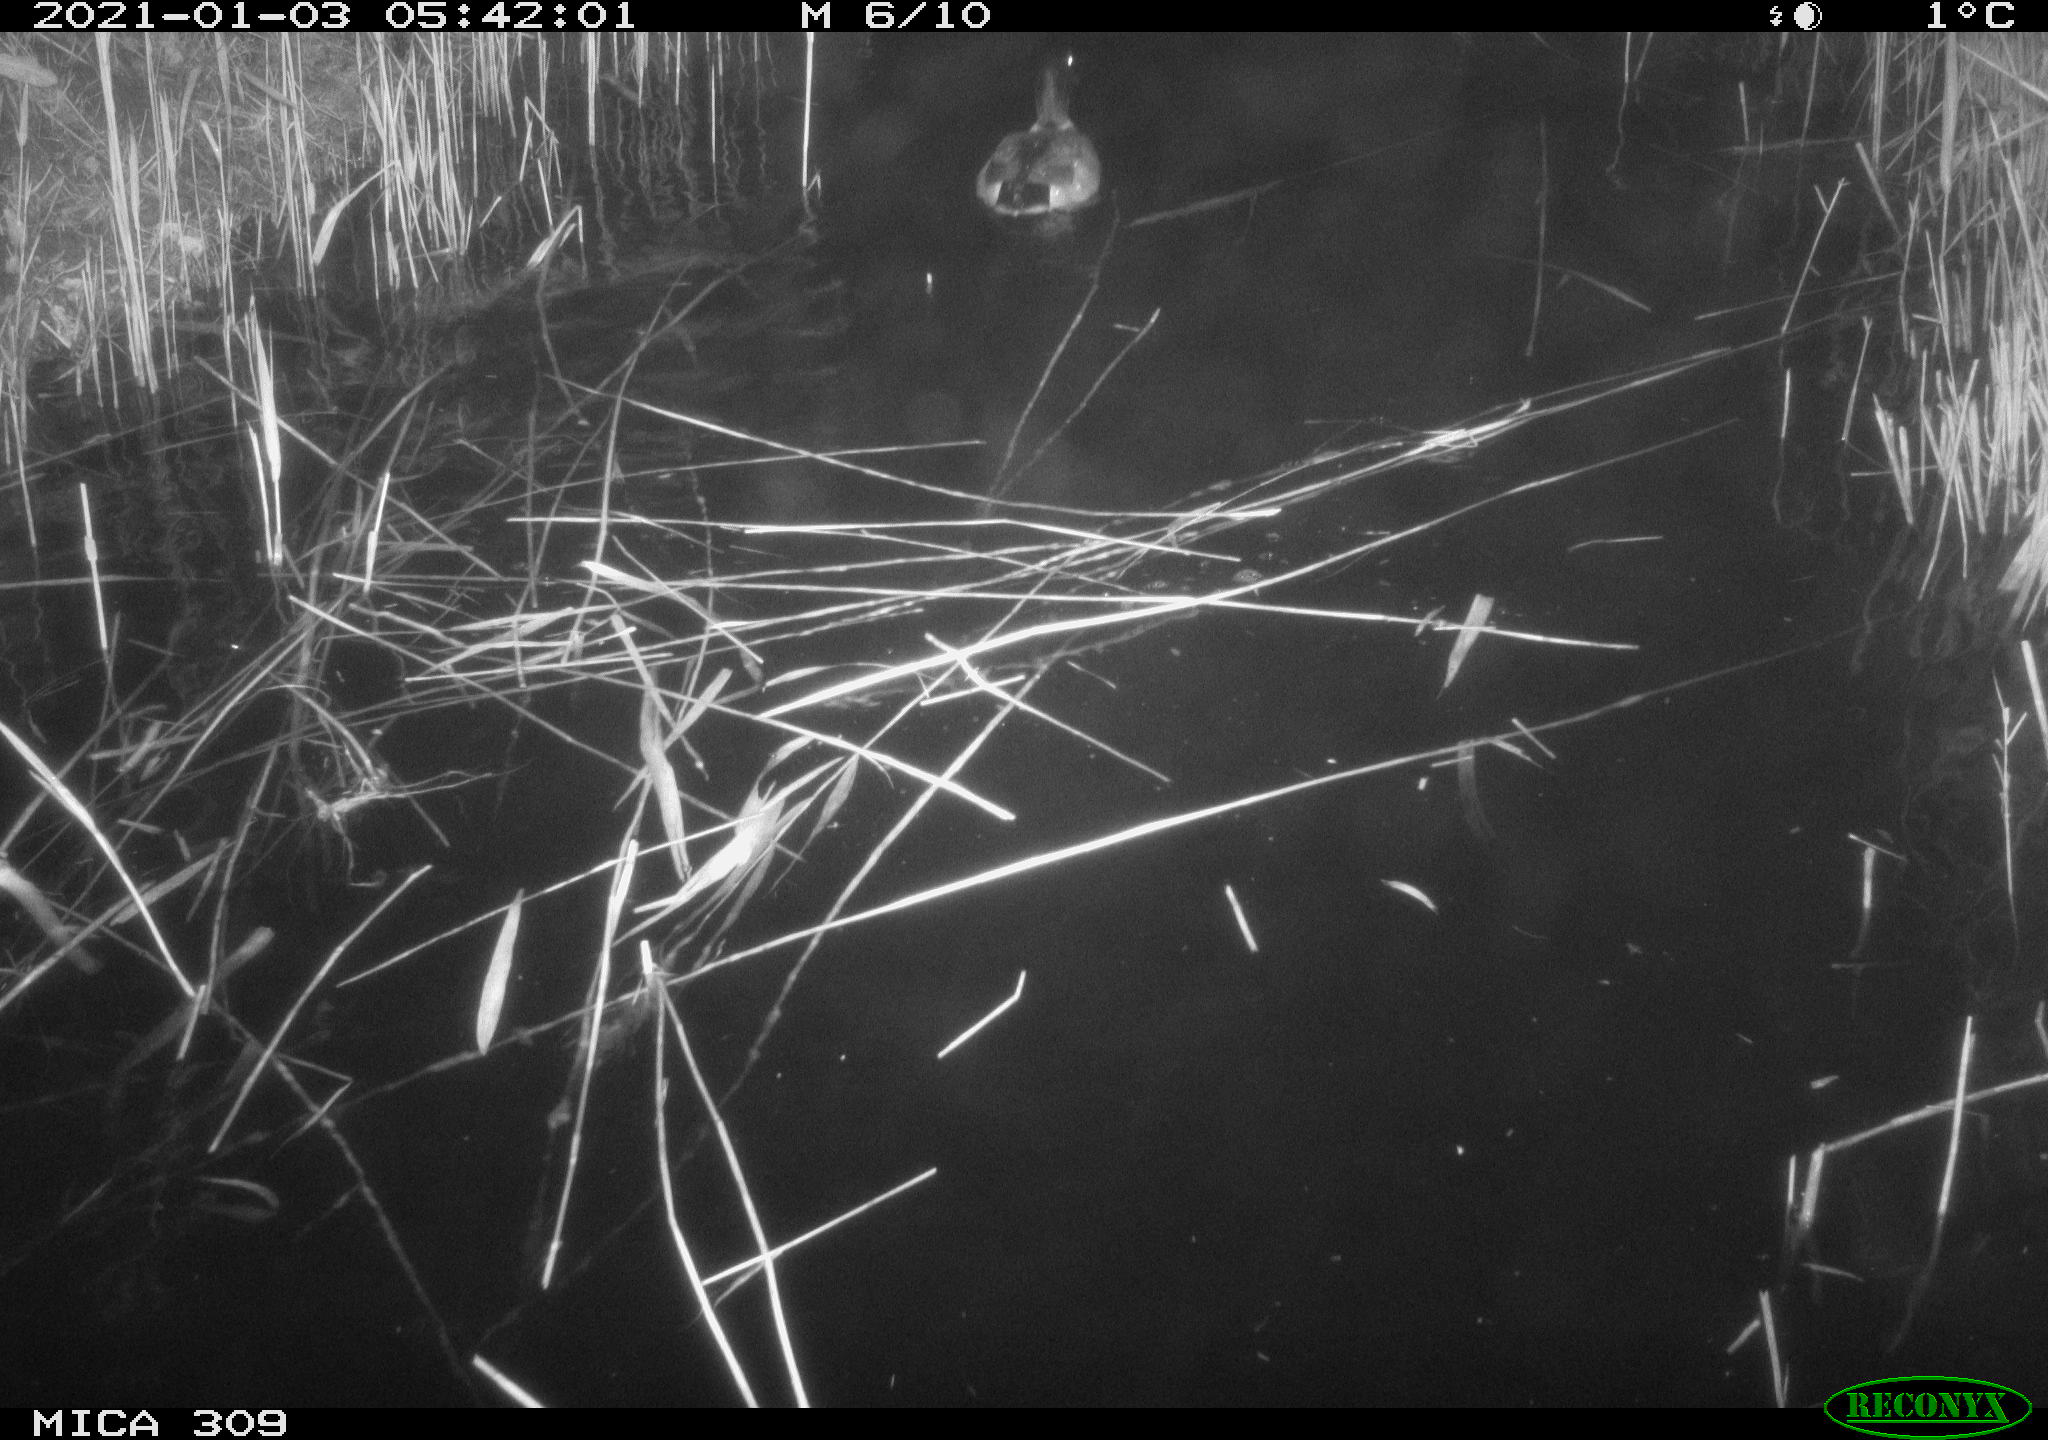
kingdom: Animalia
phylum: Chordata
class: Aves
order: Anseriformes
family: Anatidae
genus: Anas
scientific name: Anas platyrhynchos
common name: Mallard
